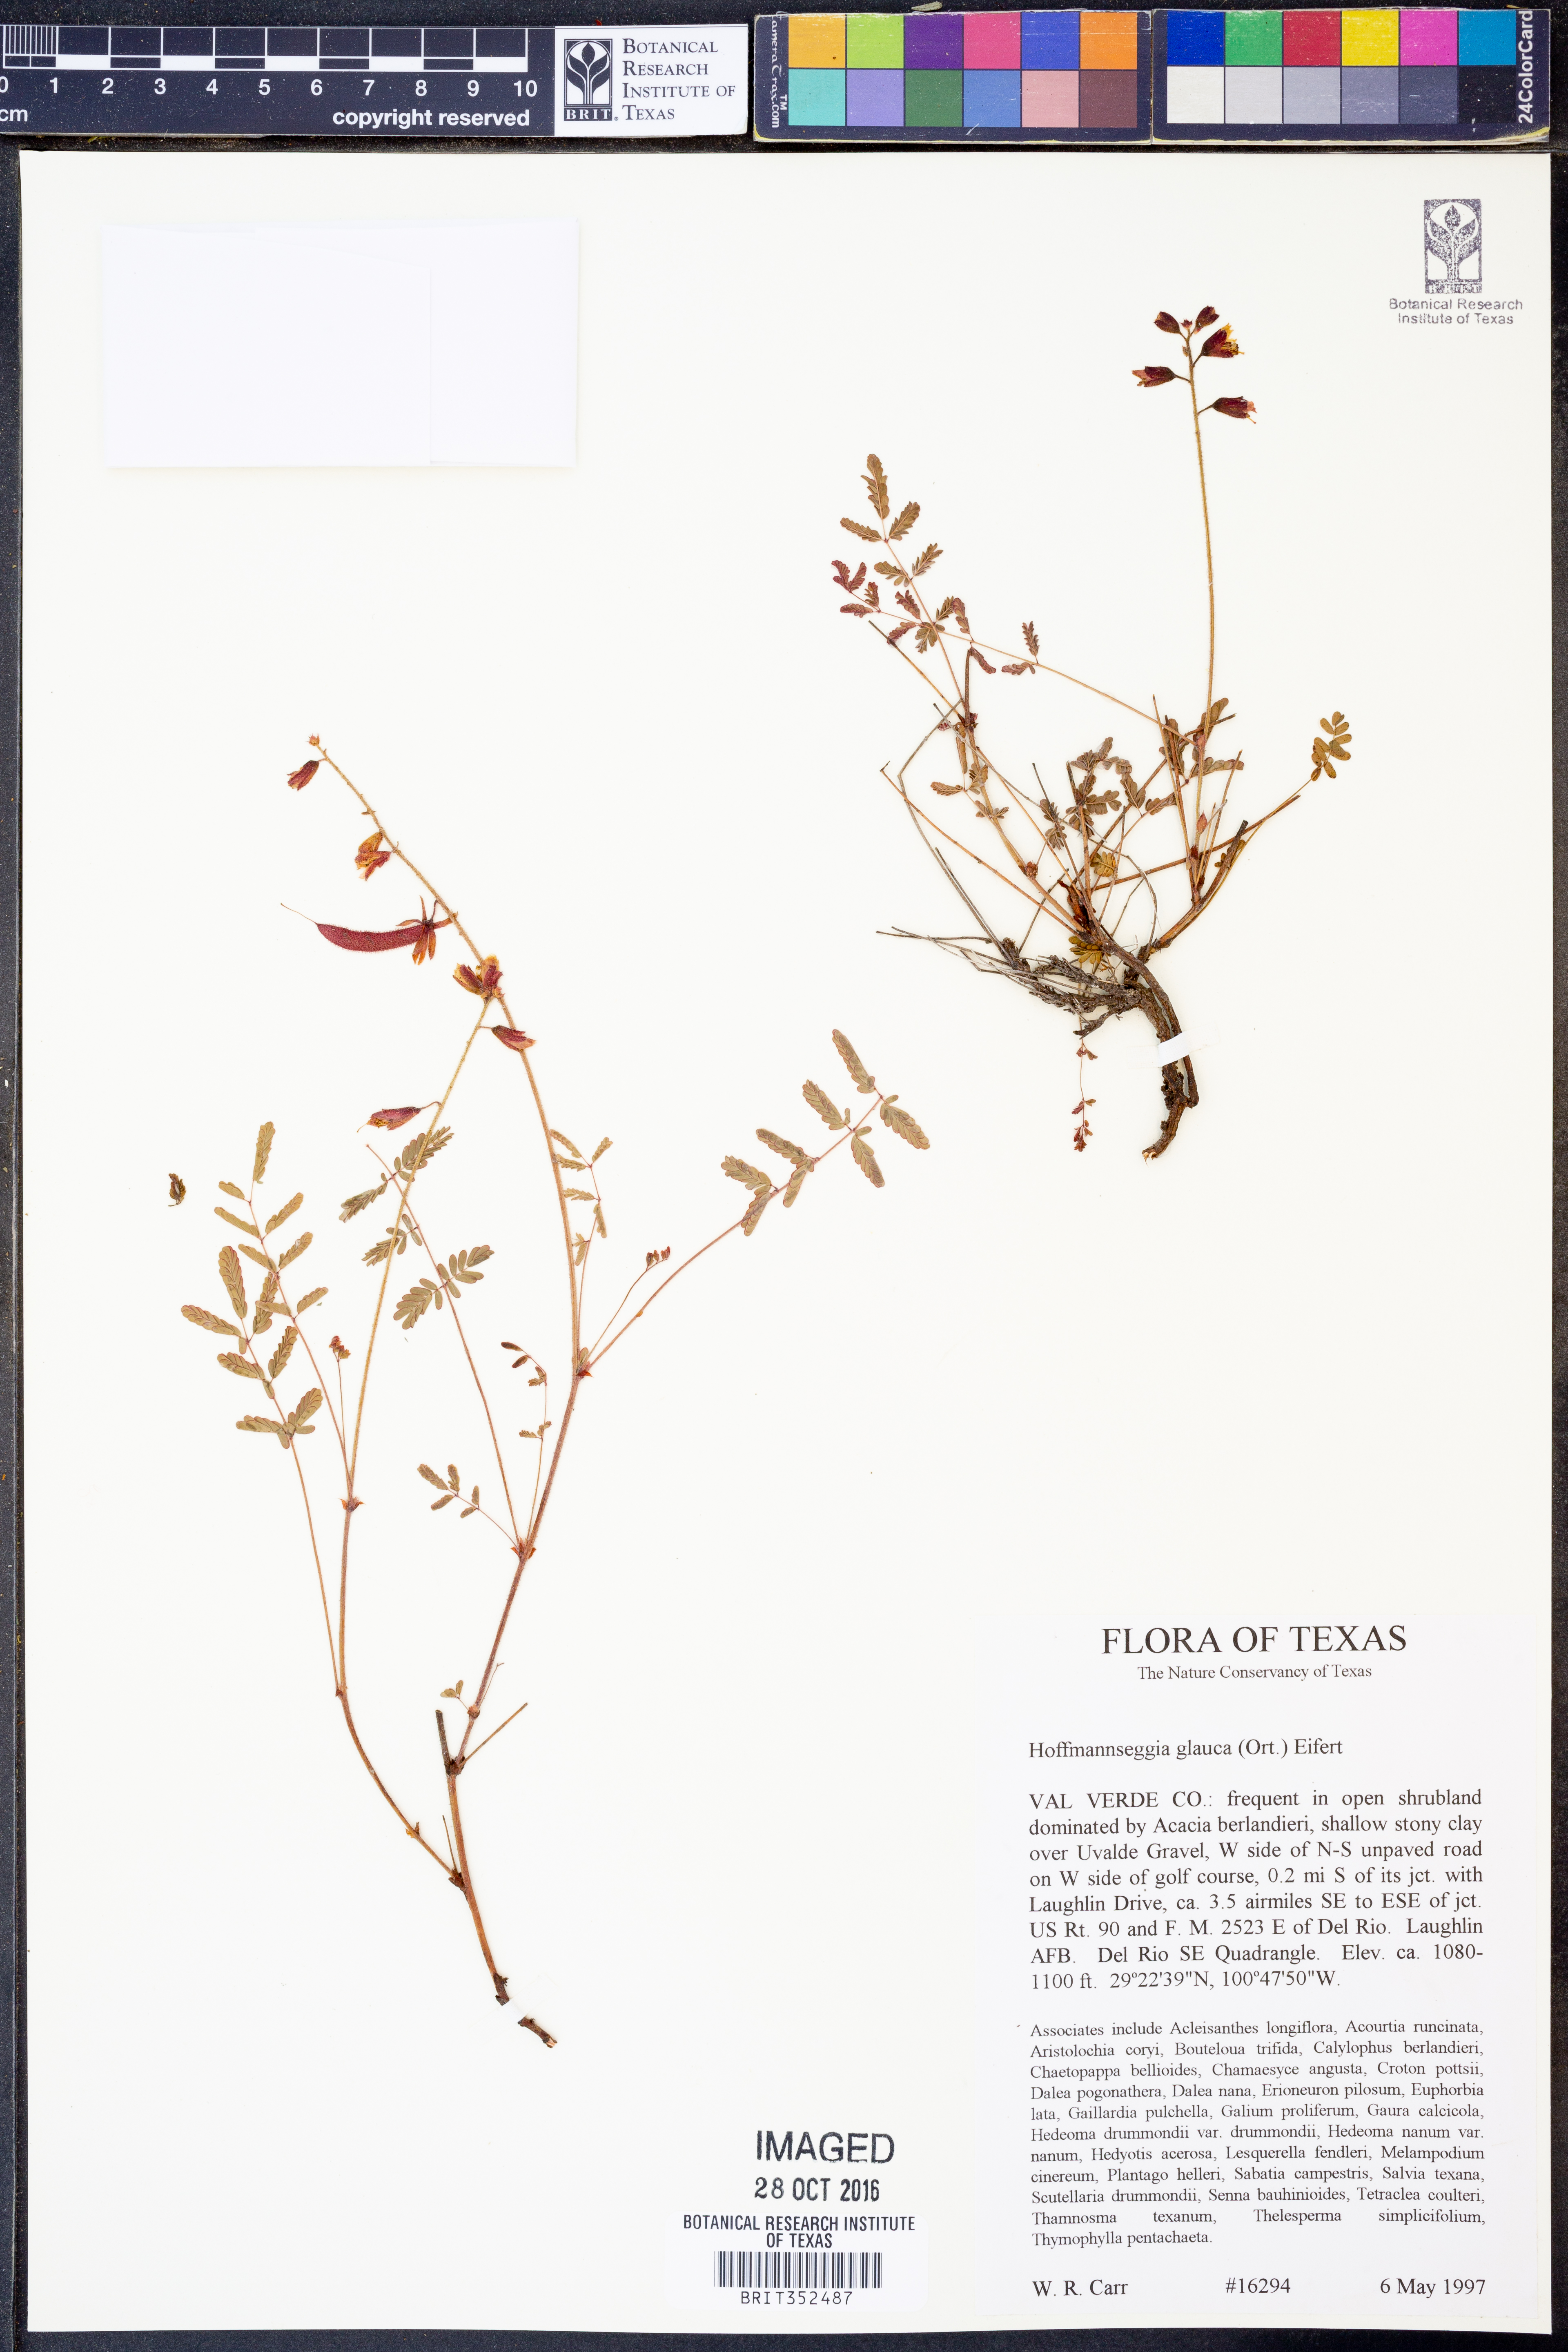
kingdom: Plantae
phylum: Tracheophyta
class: Magnoliopsida
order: Fabales
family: Fabaceae
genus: Hoffmannseggia
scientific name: Hoffmannseggia glauca
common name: Pignut
